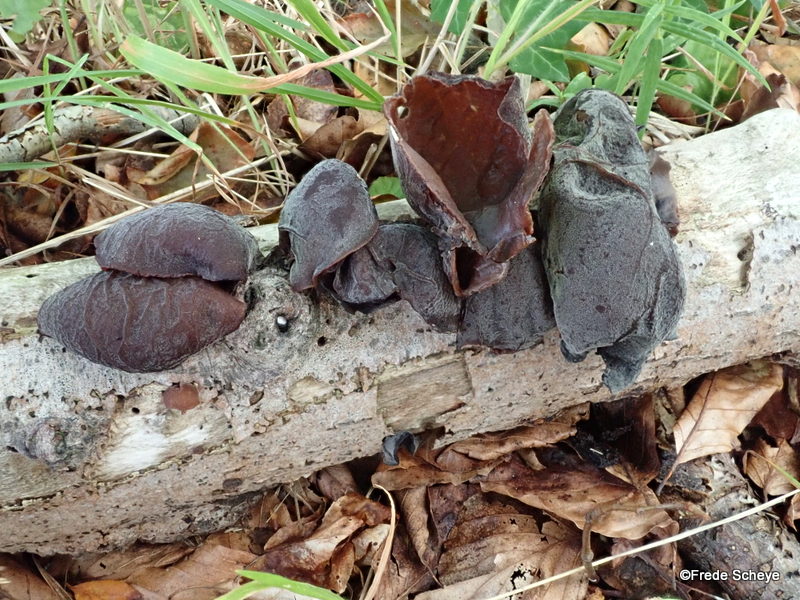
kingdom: Fungi
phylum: Basidiomycota
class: Agaricomycetes
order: Auriculariales
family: Auriculariaceae
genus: Auricularia
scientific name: Auricularia auricula-judae
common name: almindelig judasøre
